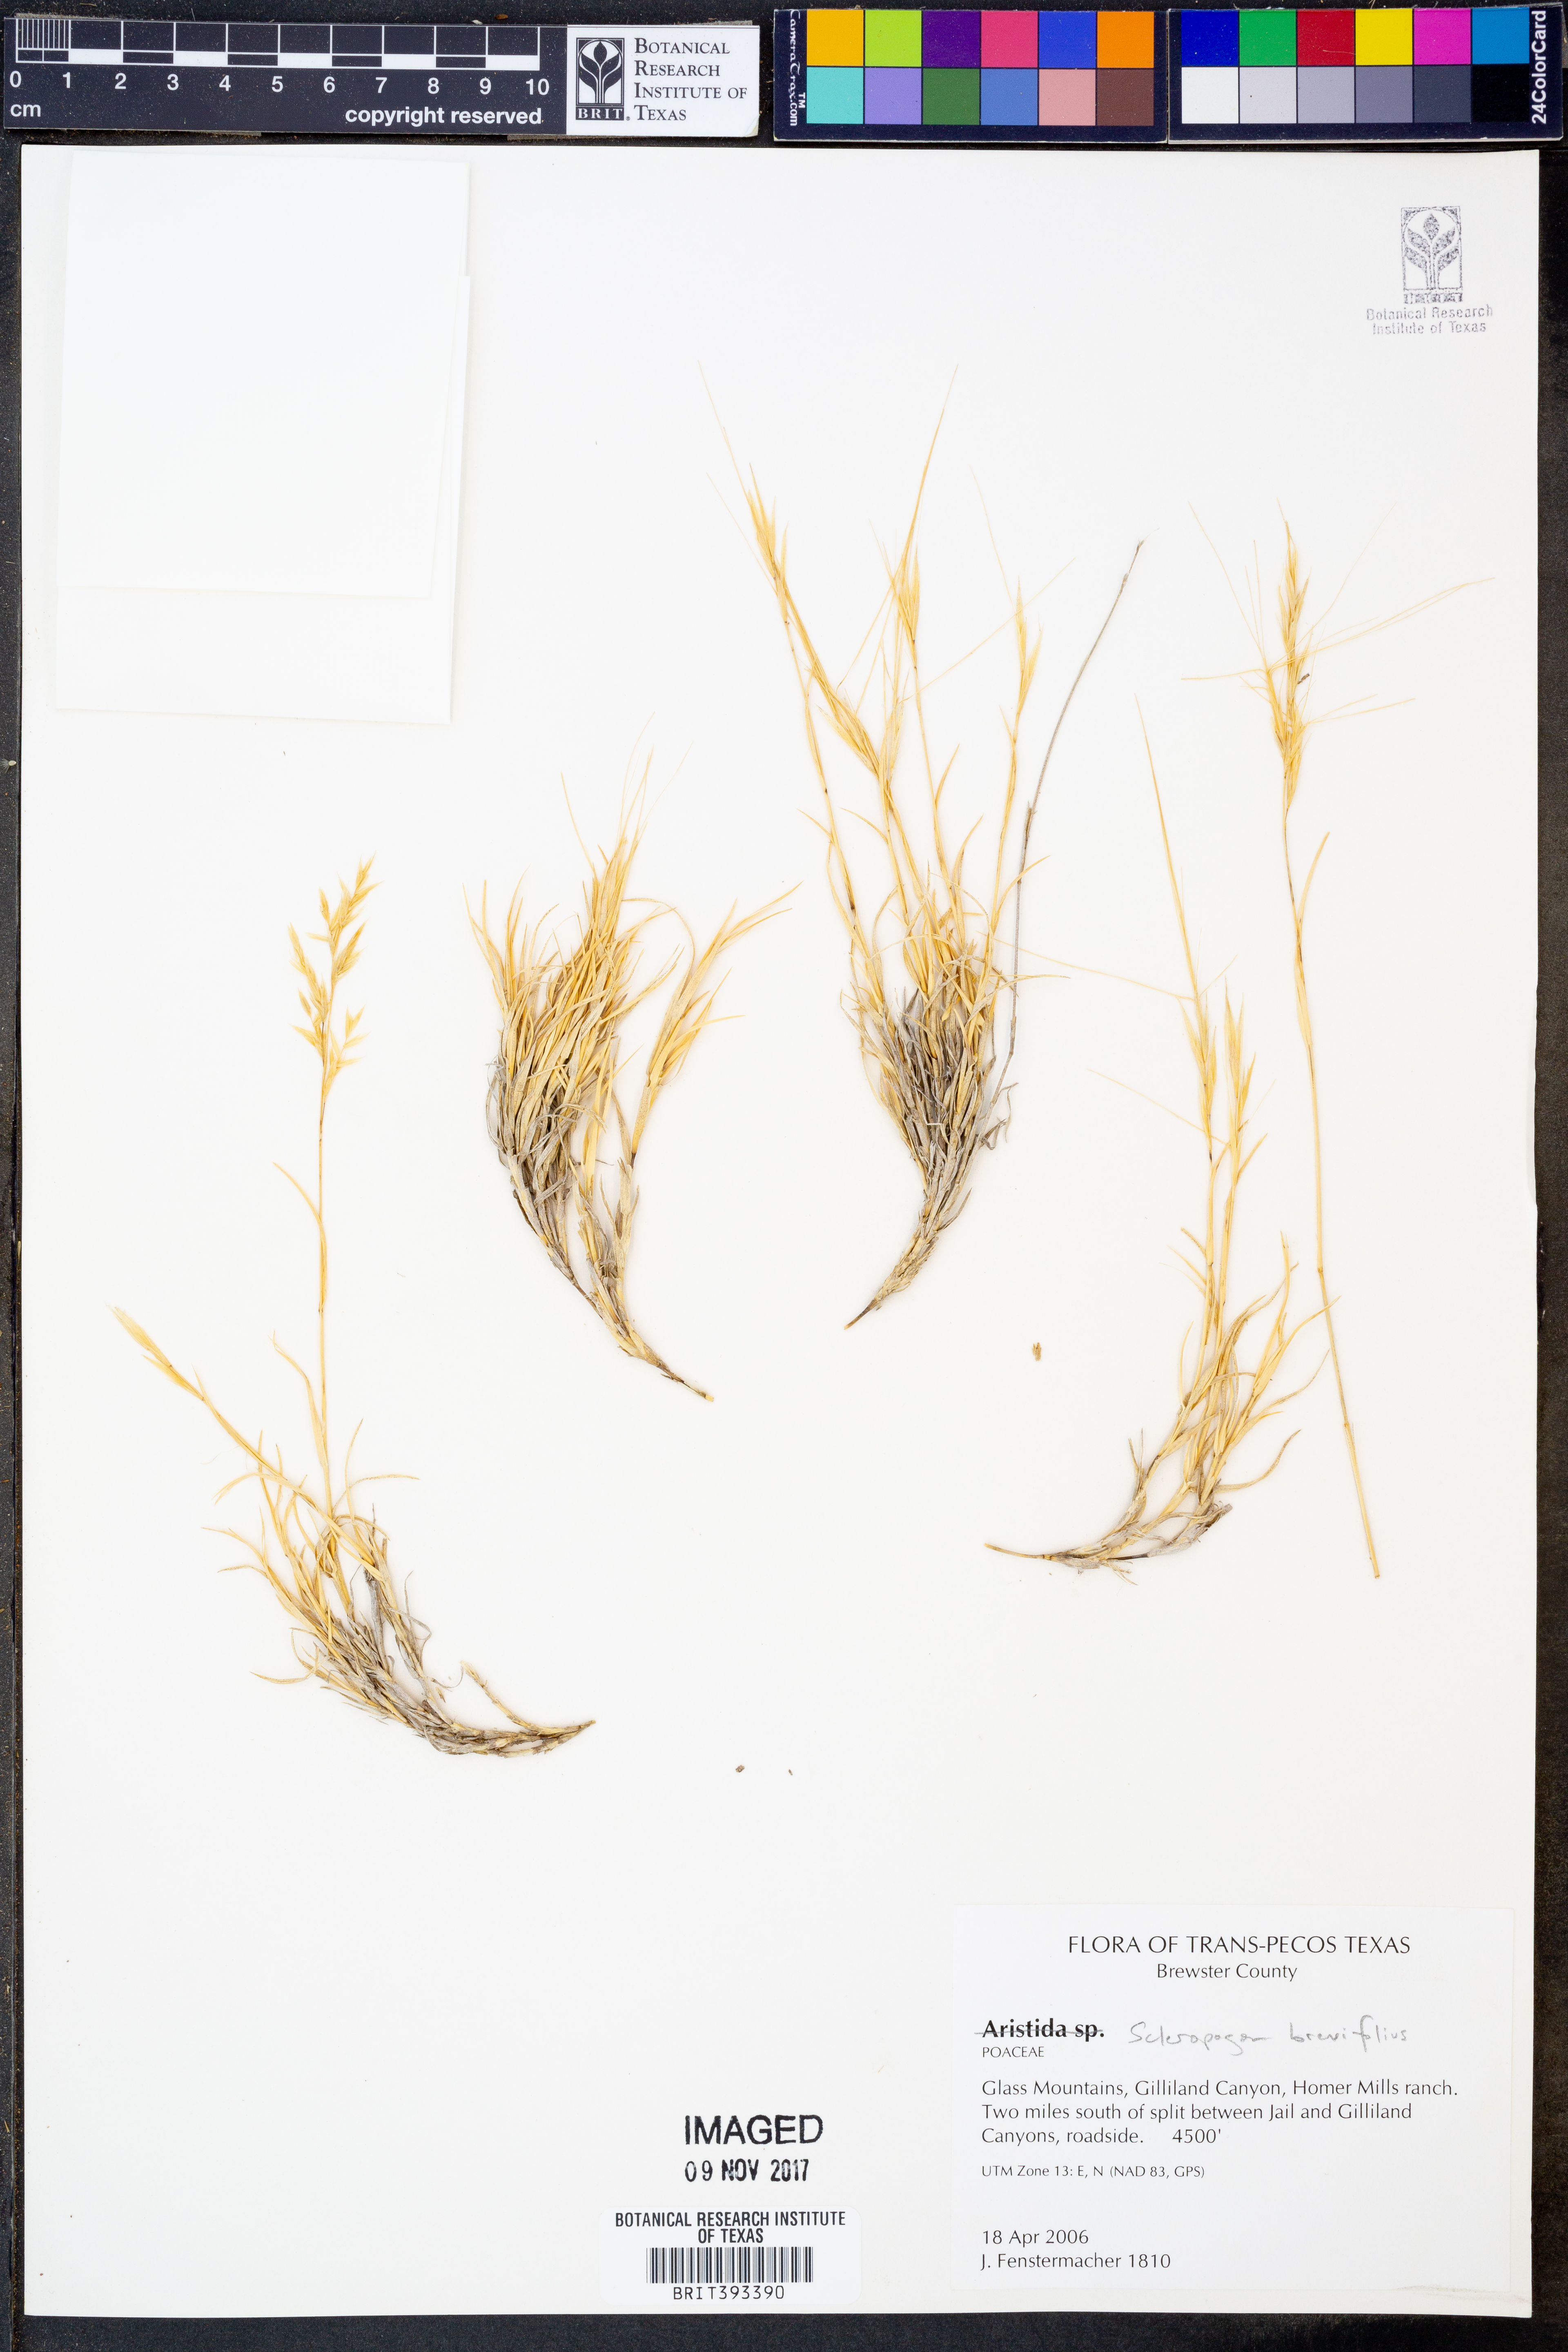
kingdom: Plantae
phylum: Tracheophyta
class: Liliopsida
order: Poales
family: Poaceae
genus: Scleropogon
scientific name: Scleropogon brevifolius
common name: Burro grass
